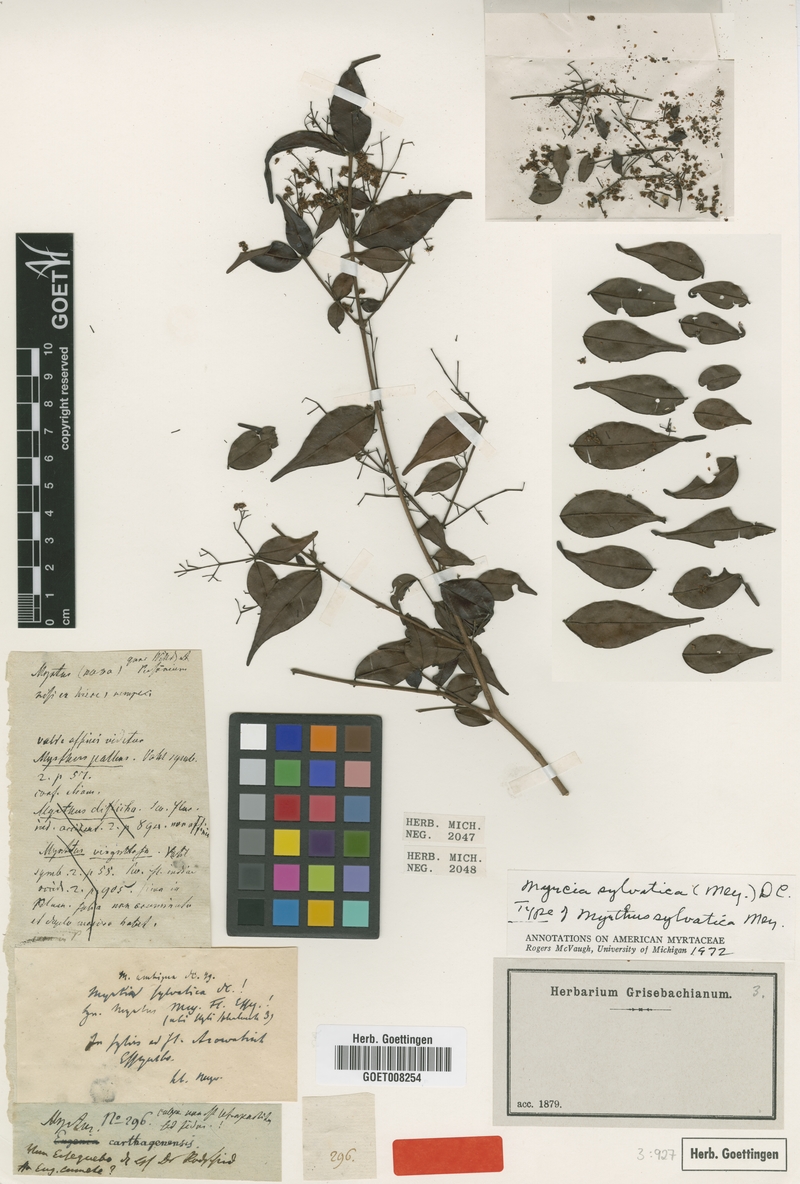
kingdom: Plantae
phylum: Tracheophyta
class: Magnoliopsida
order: Myrtales
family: Myrtaceae
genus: Myrcia
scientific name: Myrcia sylvatica
